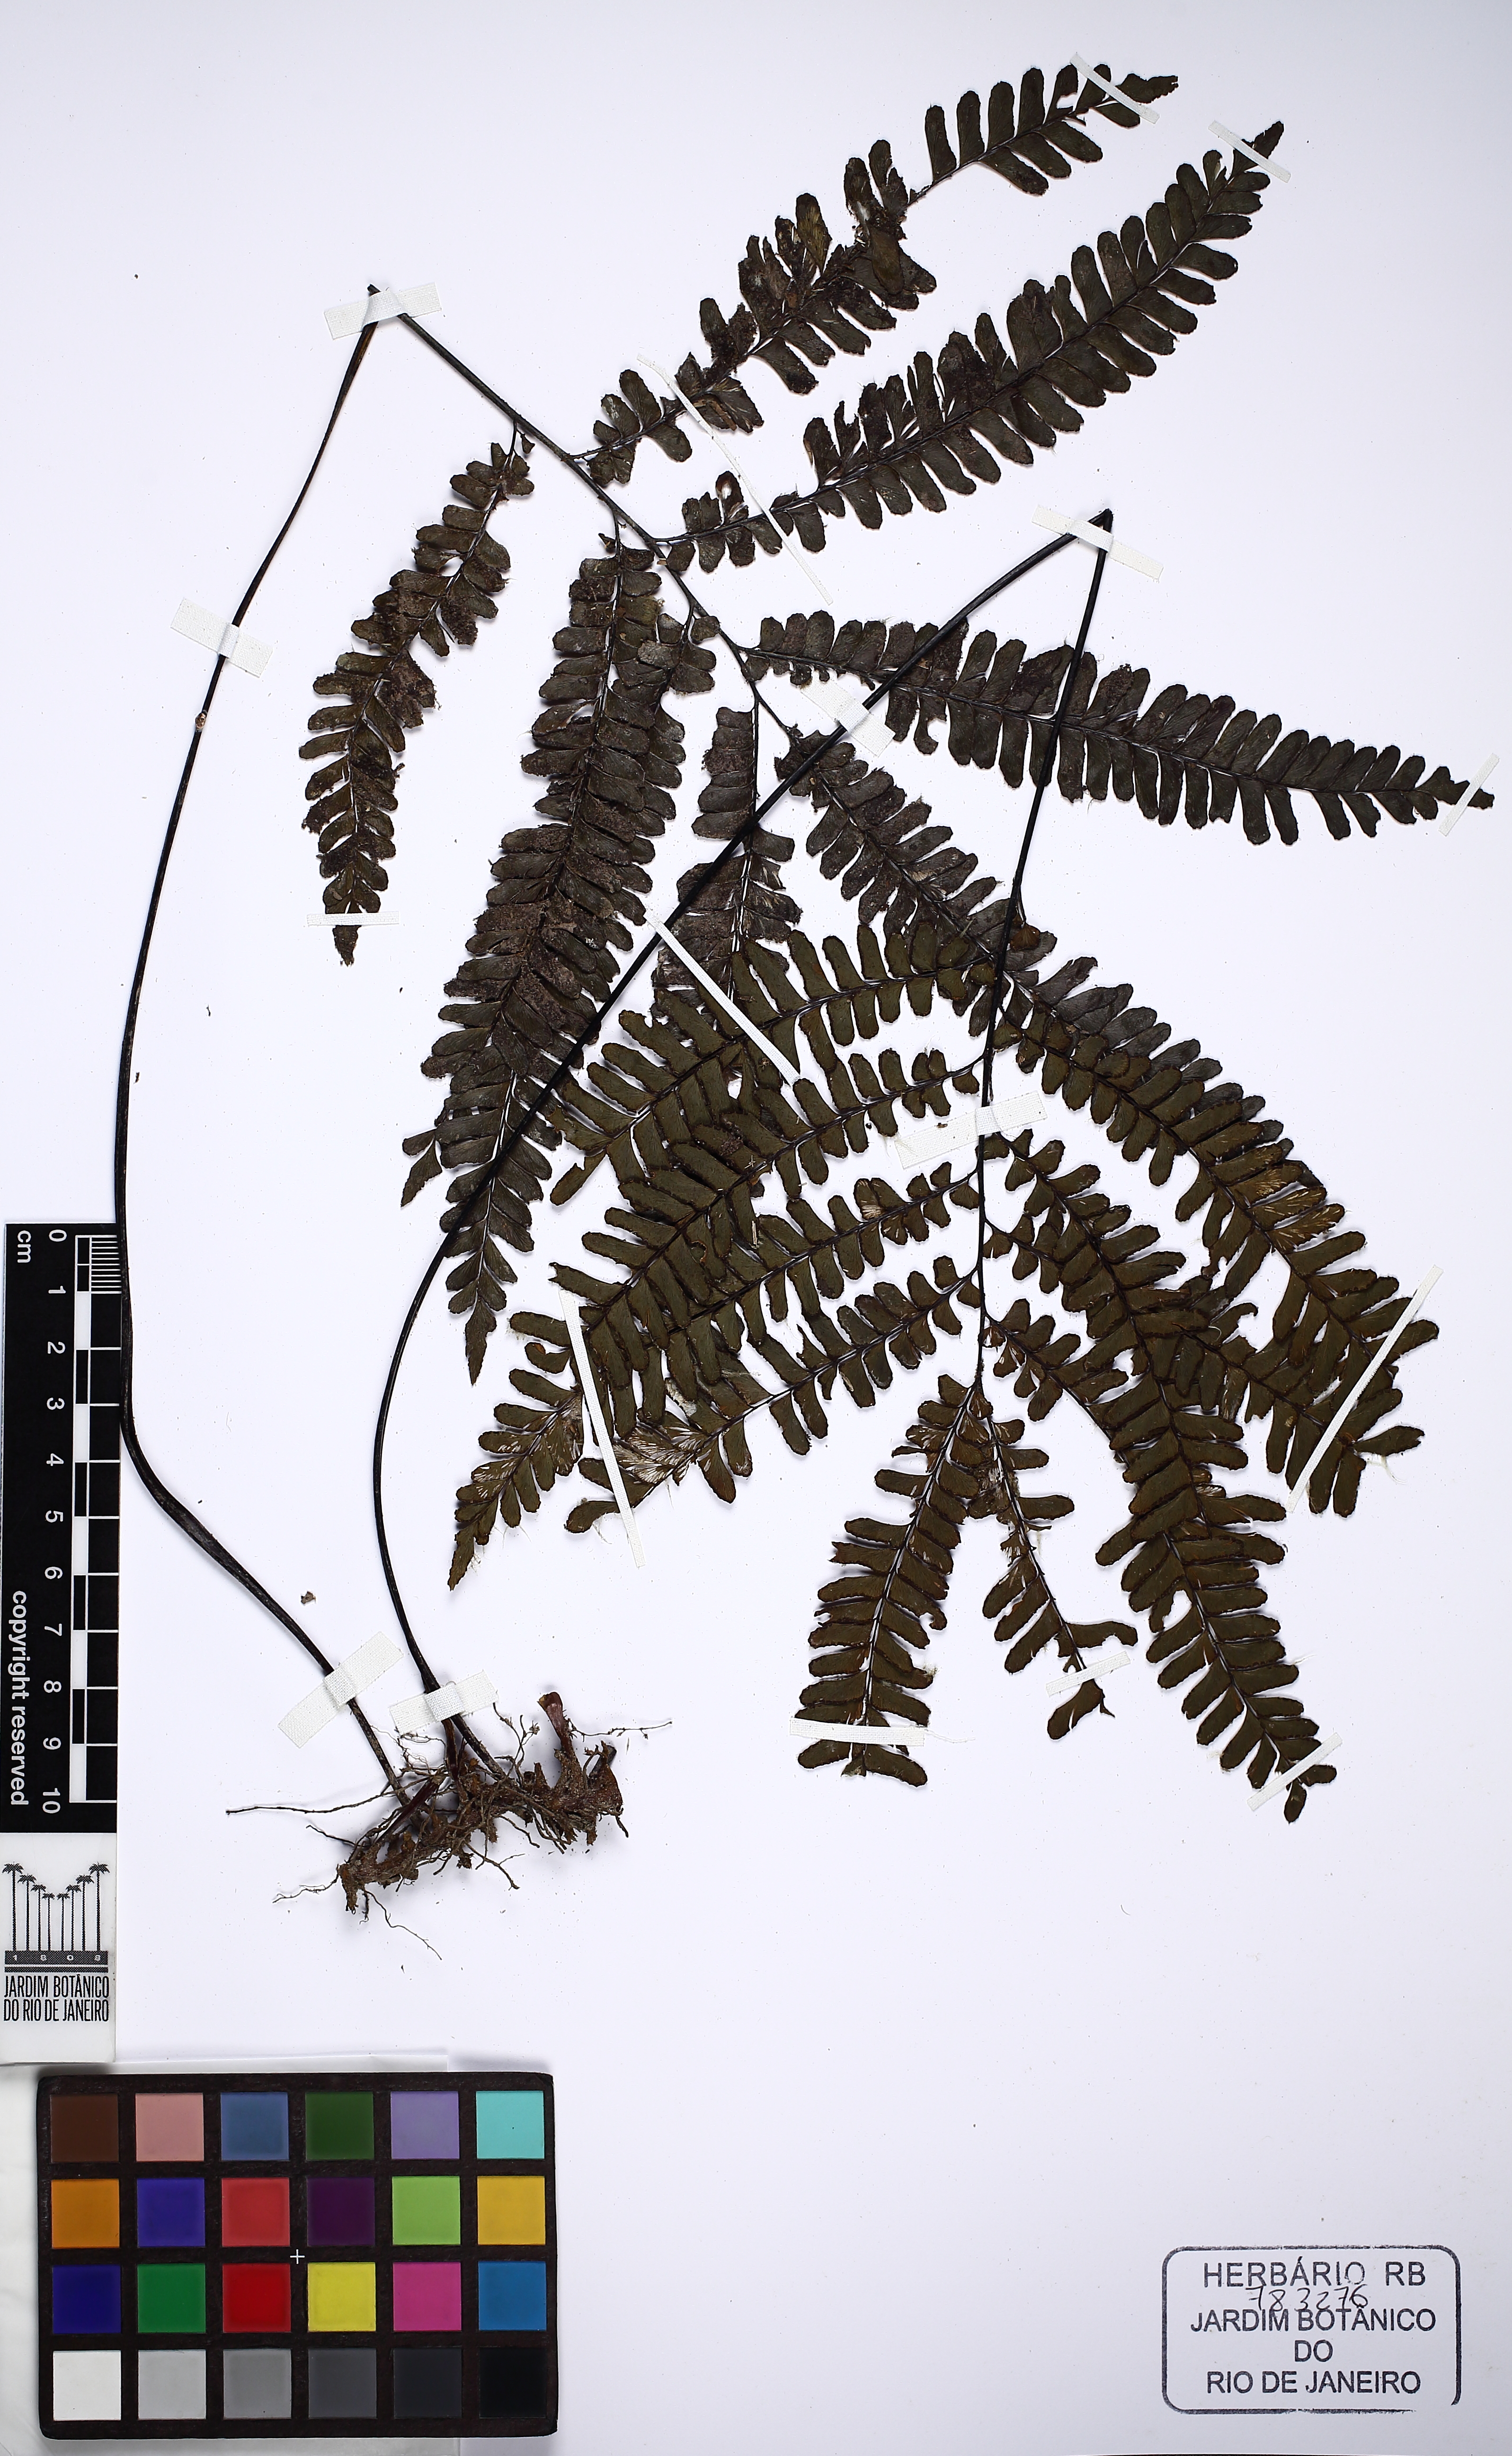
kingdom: Plantae
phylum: Tracheophyta
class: Polypodiopsida
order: Polypodiales
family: Pteridaceae
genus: Adiantum
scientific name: Adiantum
